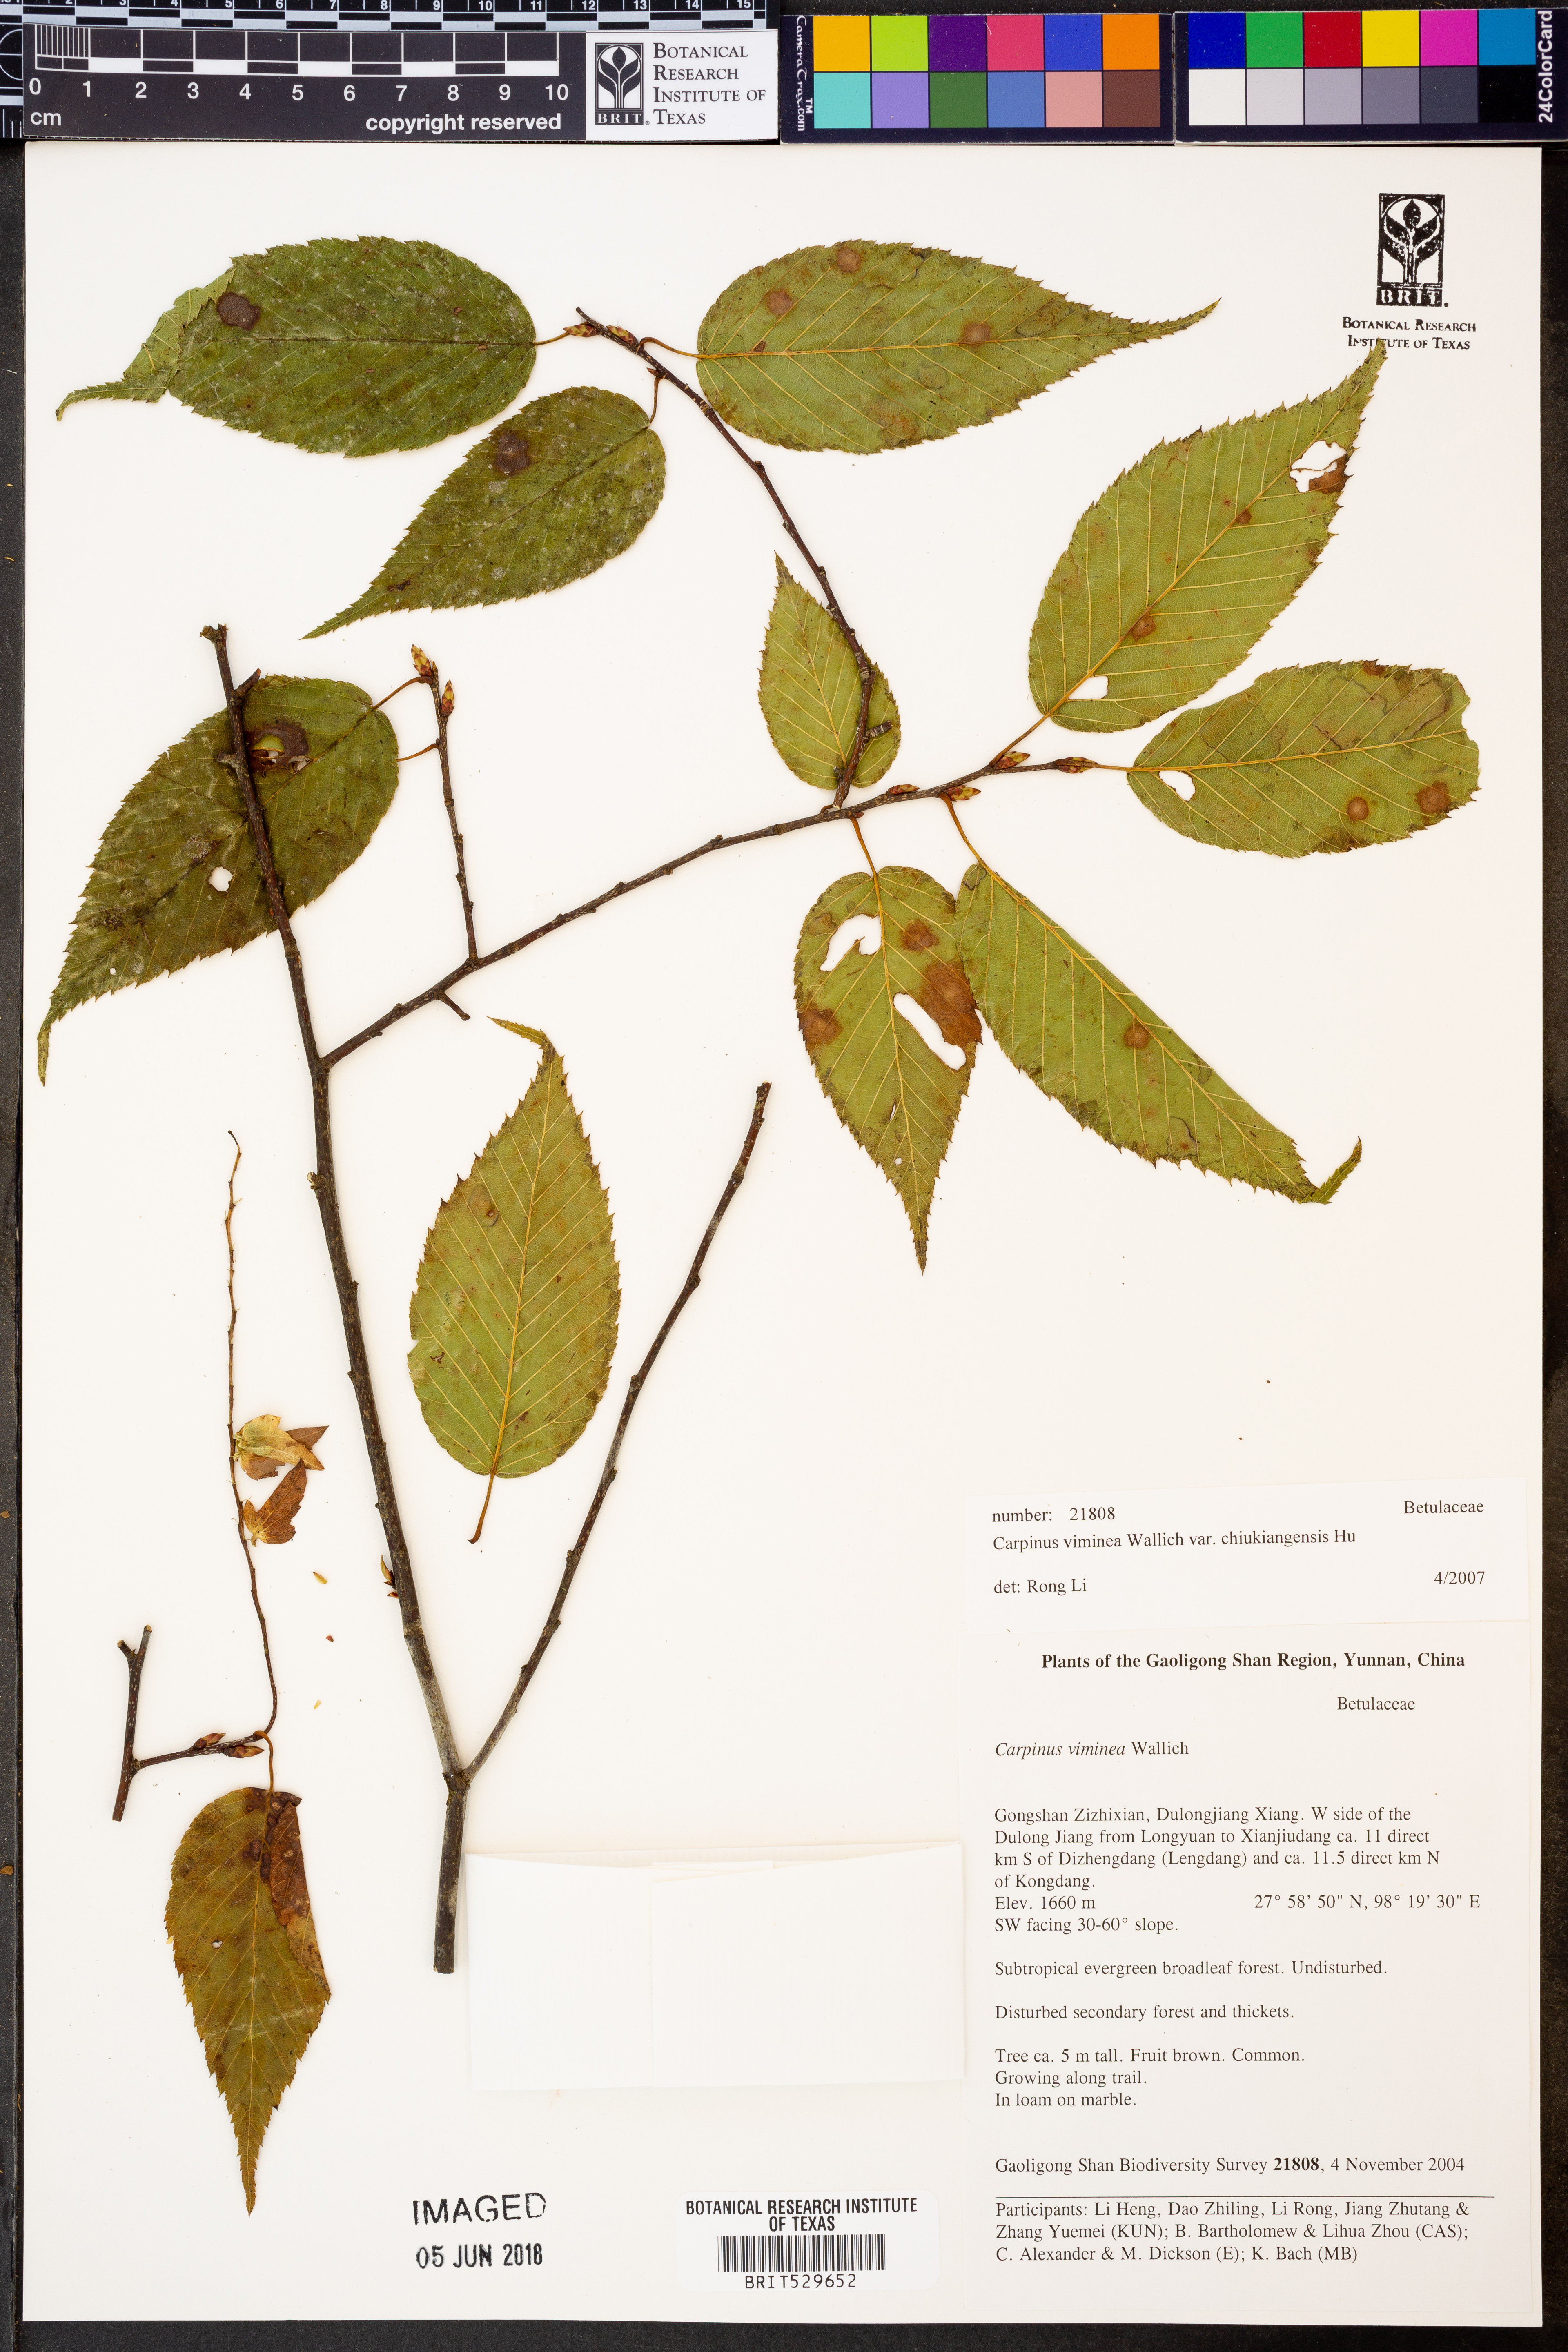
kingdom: Plantae
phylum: Tracheophyta
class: Magnoliopsida
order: Fagales
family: Betulaceae
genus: Carpinus
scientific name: Carpinus viminea
